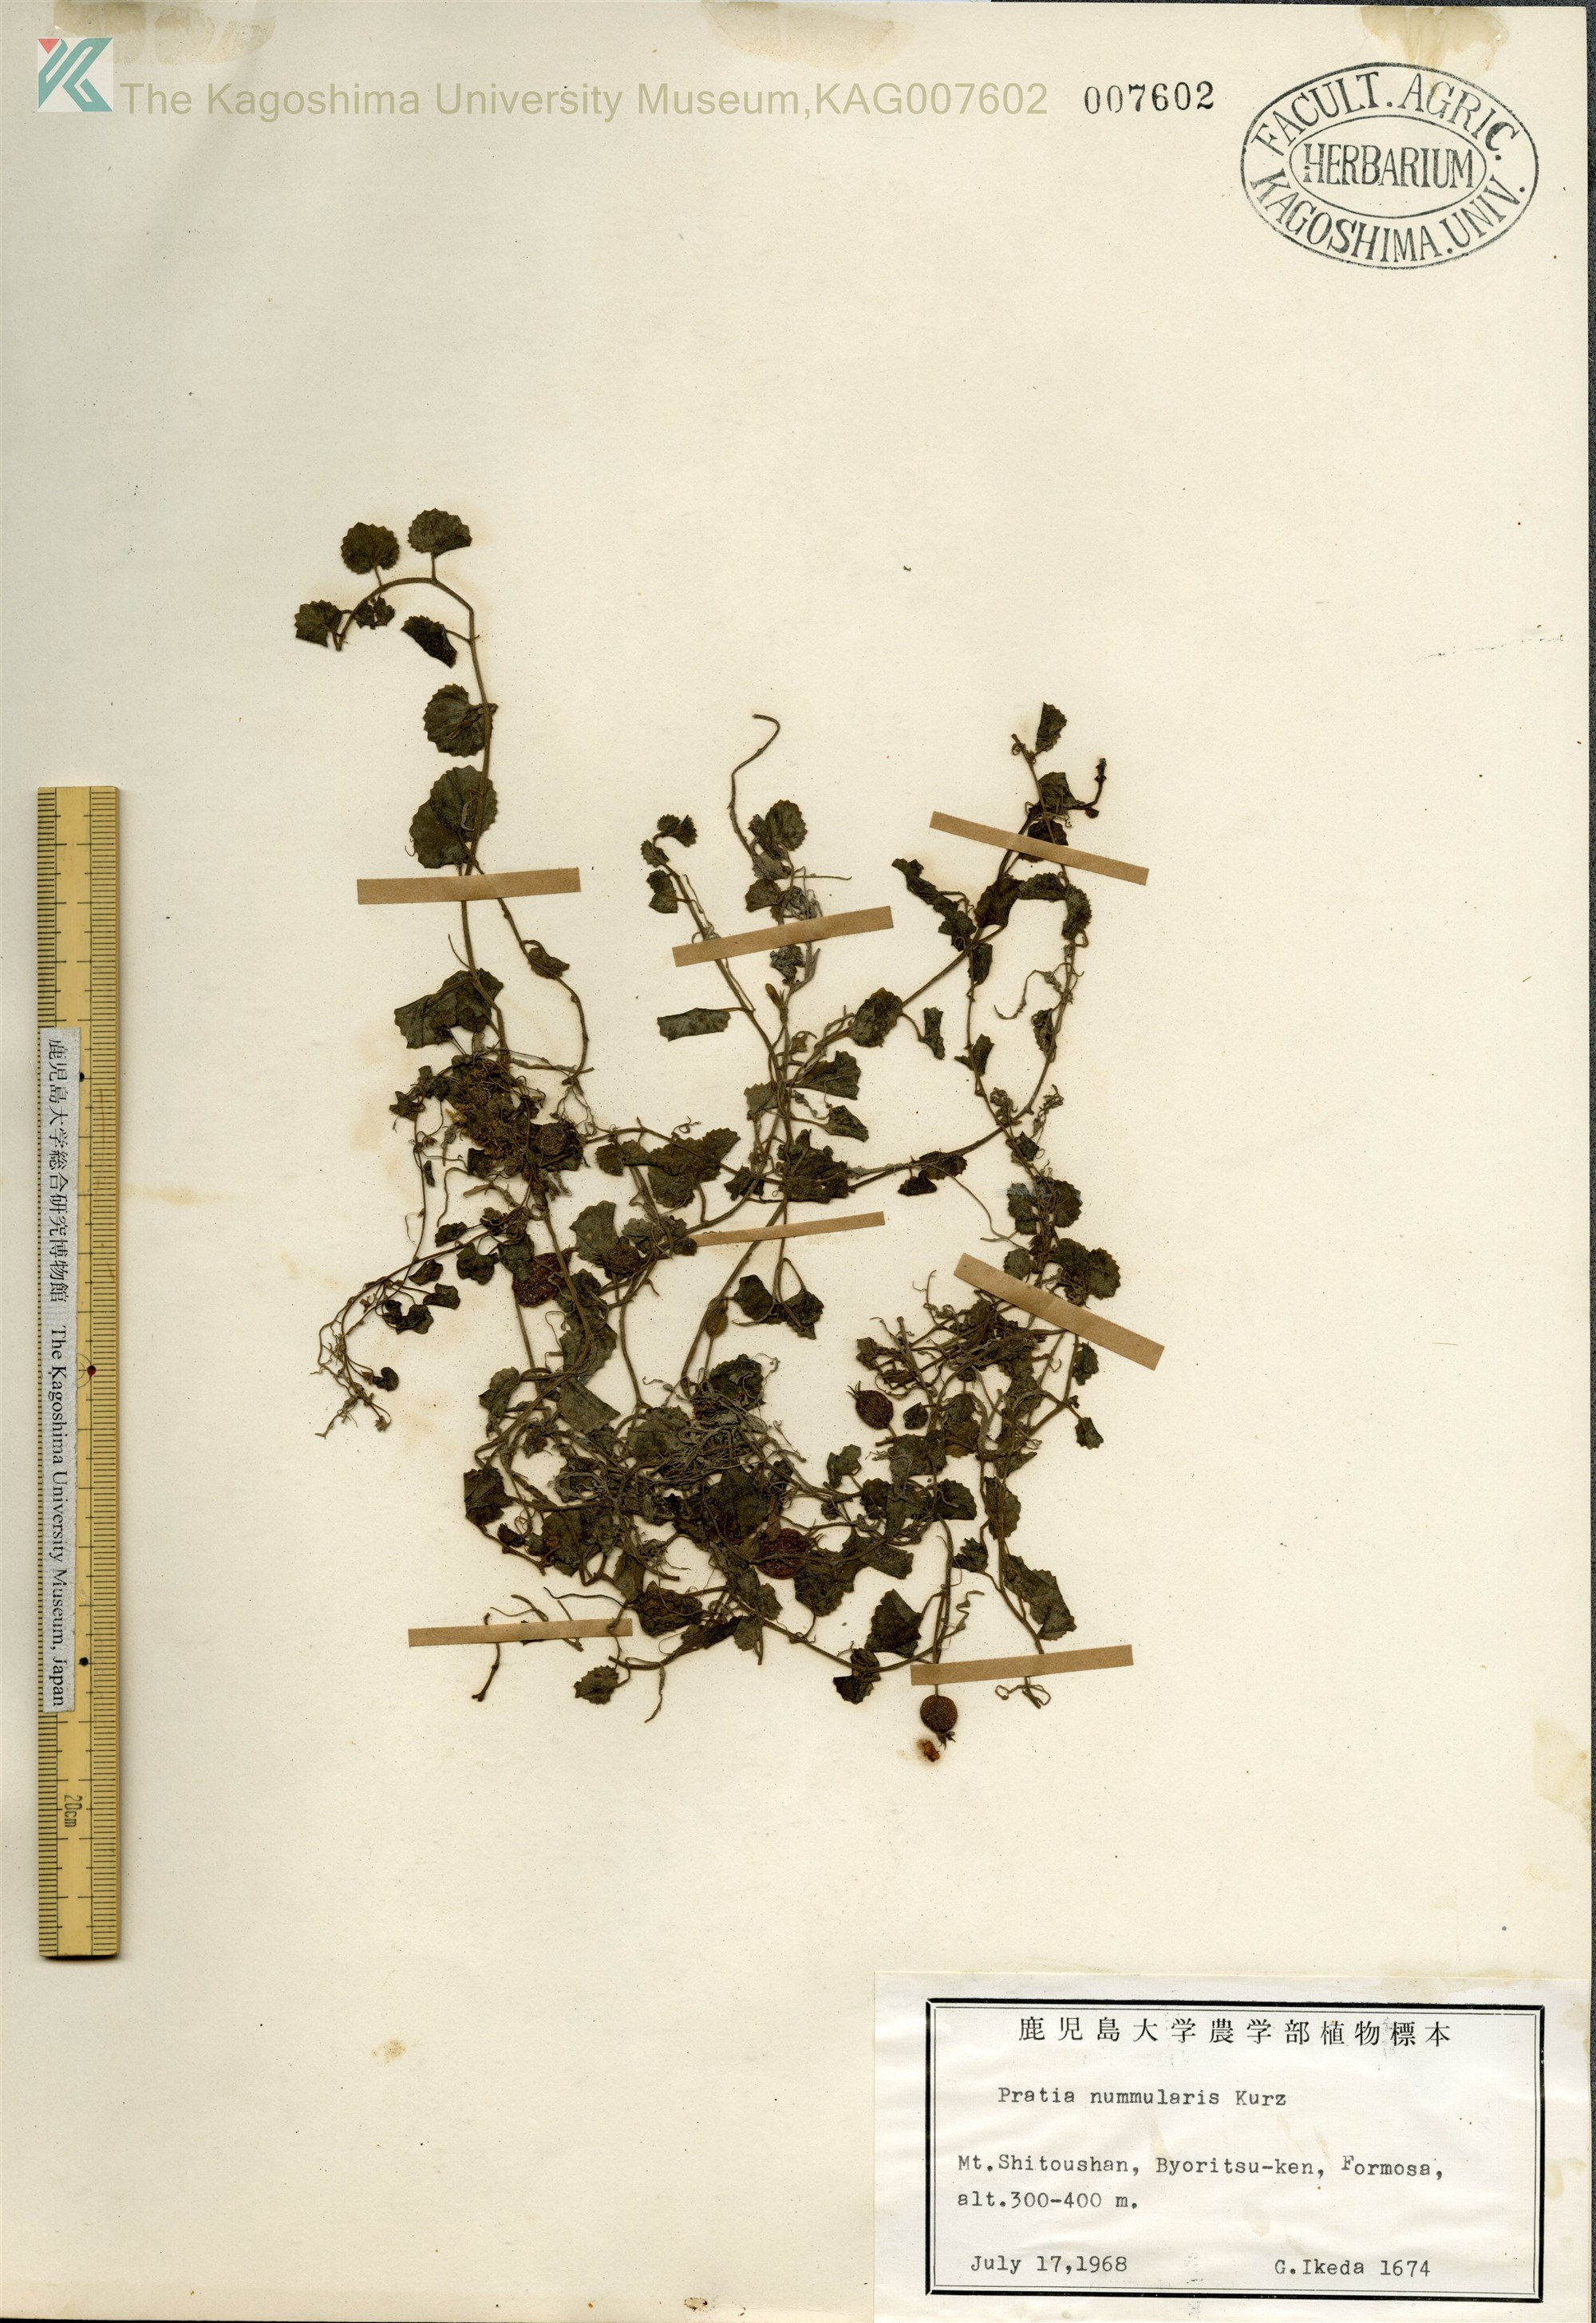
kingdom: Plantae
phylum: Tracheophyta
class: Magnoliopsida
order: Asterales
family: Campanulaceae
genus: Pratia
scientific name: Pratia nummularia
